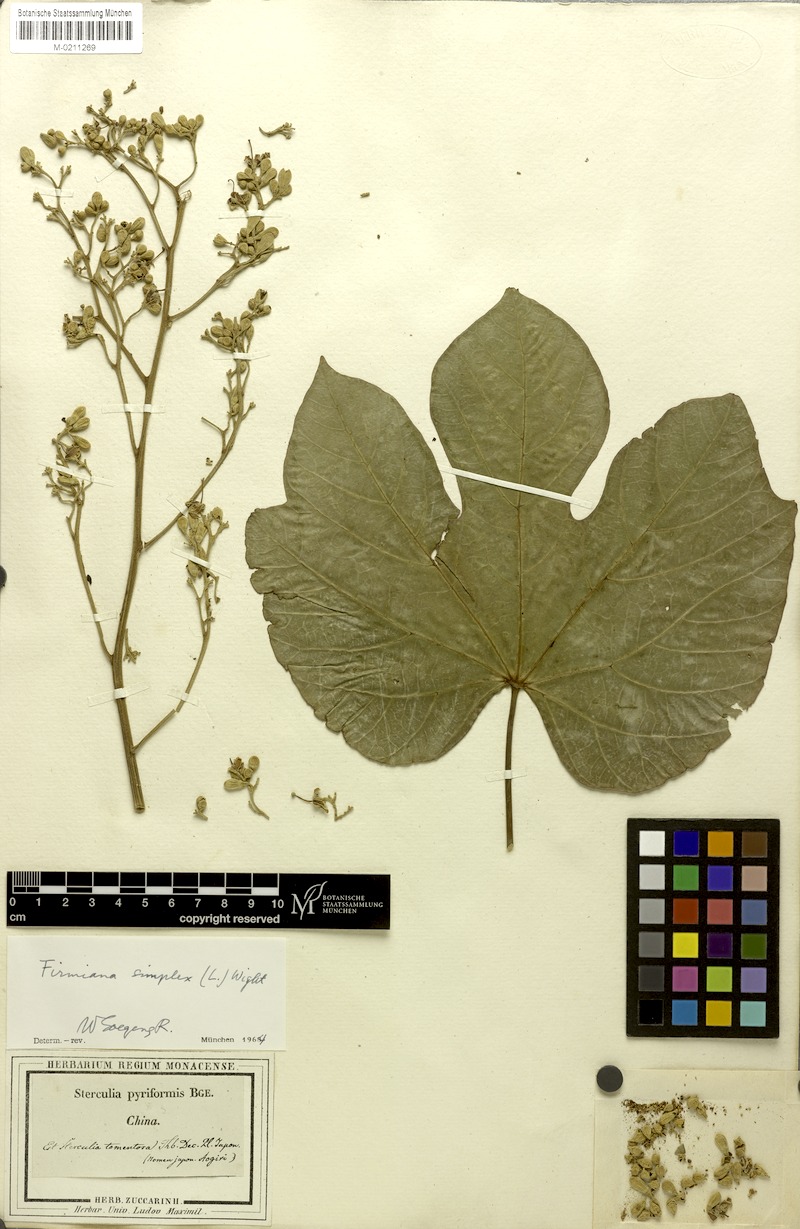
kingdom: Plantae
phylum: Tracheophyta
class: Magnoliopsida
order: Malvales
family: Malvaceae
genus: Firmiana
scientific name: Firmiana simplex
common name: Chinese parasoltree
